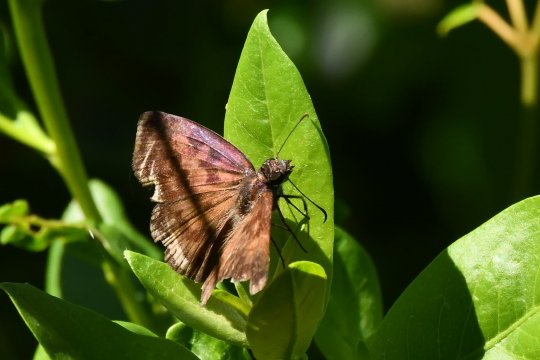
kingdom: Animalia
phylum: Arthropoda
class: Insecta
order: Lepidoptera
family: Hesperiidae
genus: Anastrus
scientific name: Anastrus sempiternus
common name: Common Anastrus
